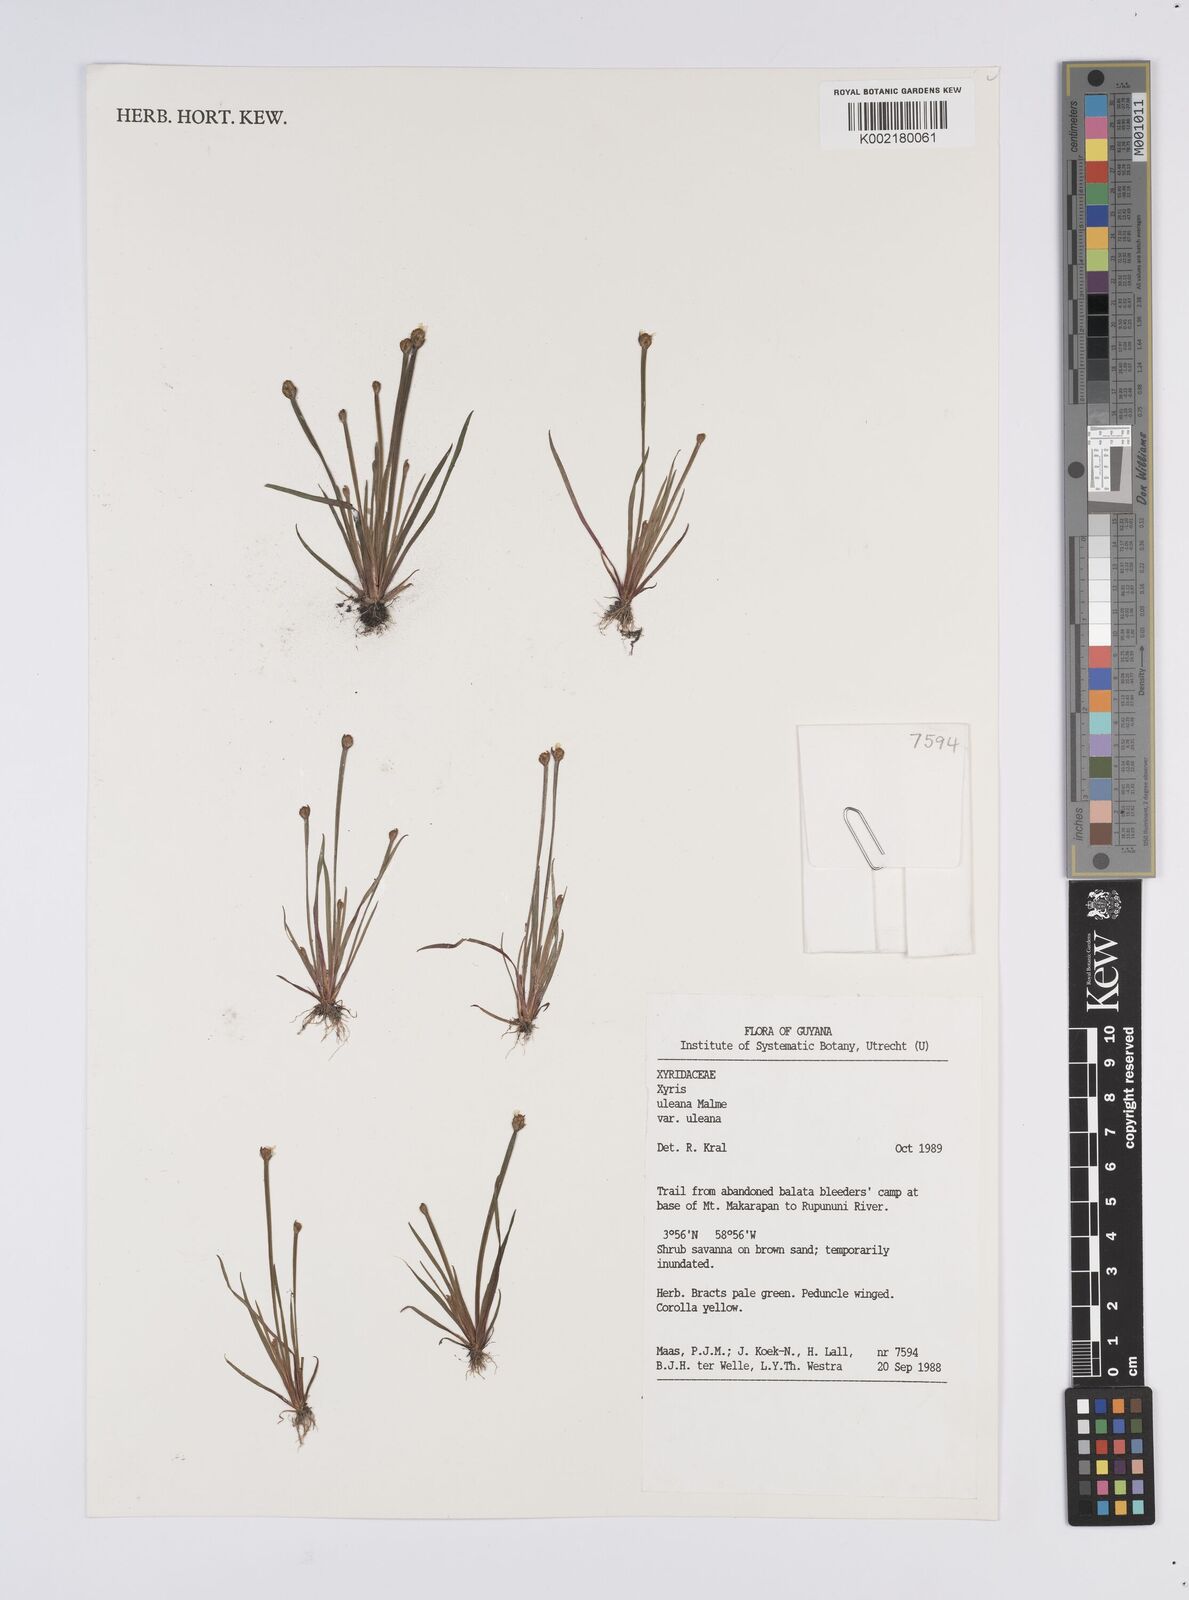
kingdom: Plantae
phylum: Tracheophyta
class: Liliopsida
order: Poales
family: Xyridaceae
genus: Xyris
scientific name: Xyris uleana
